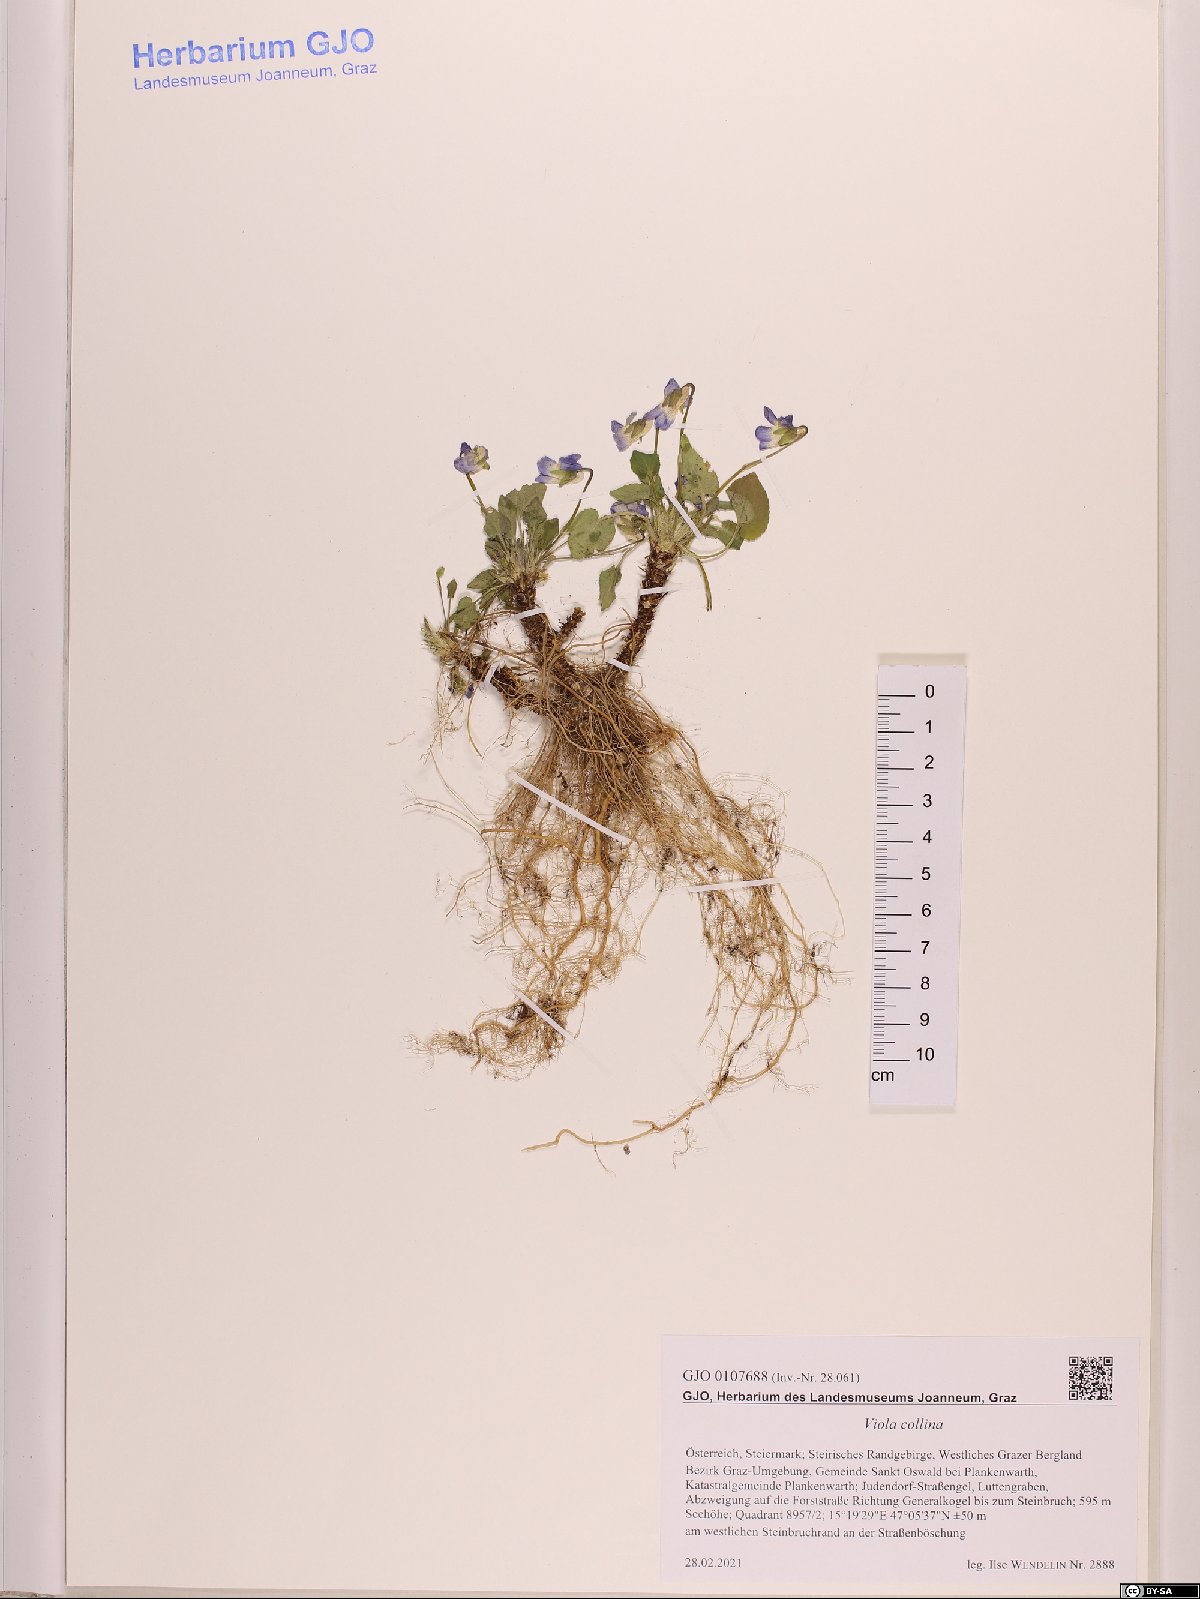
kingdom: Plantae
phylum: Tracheophyta
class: Magnoliopsida
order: Malpighiales
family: Violaceae
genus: Viola
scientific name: Viola collina
